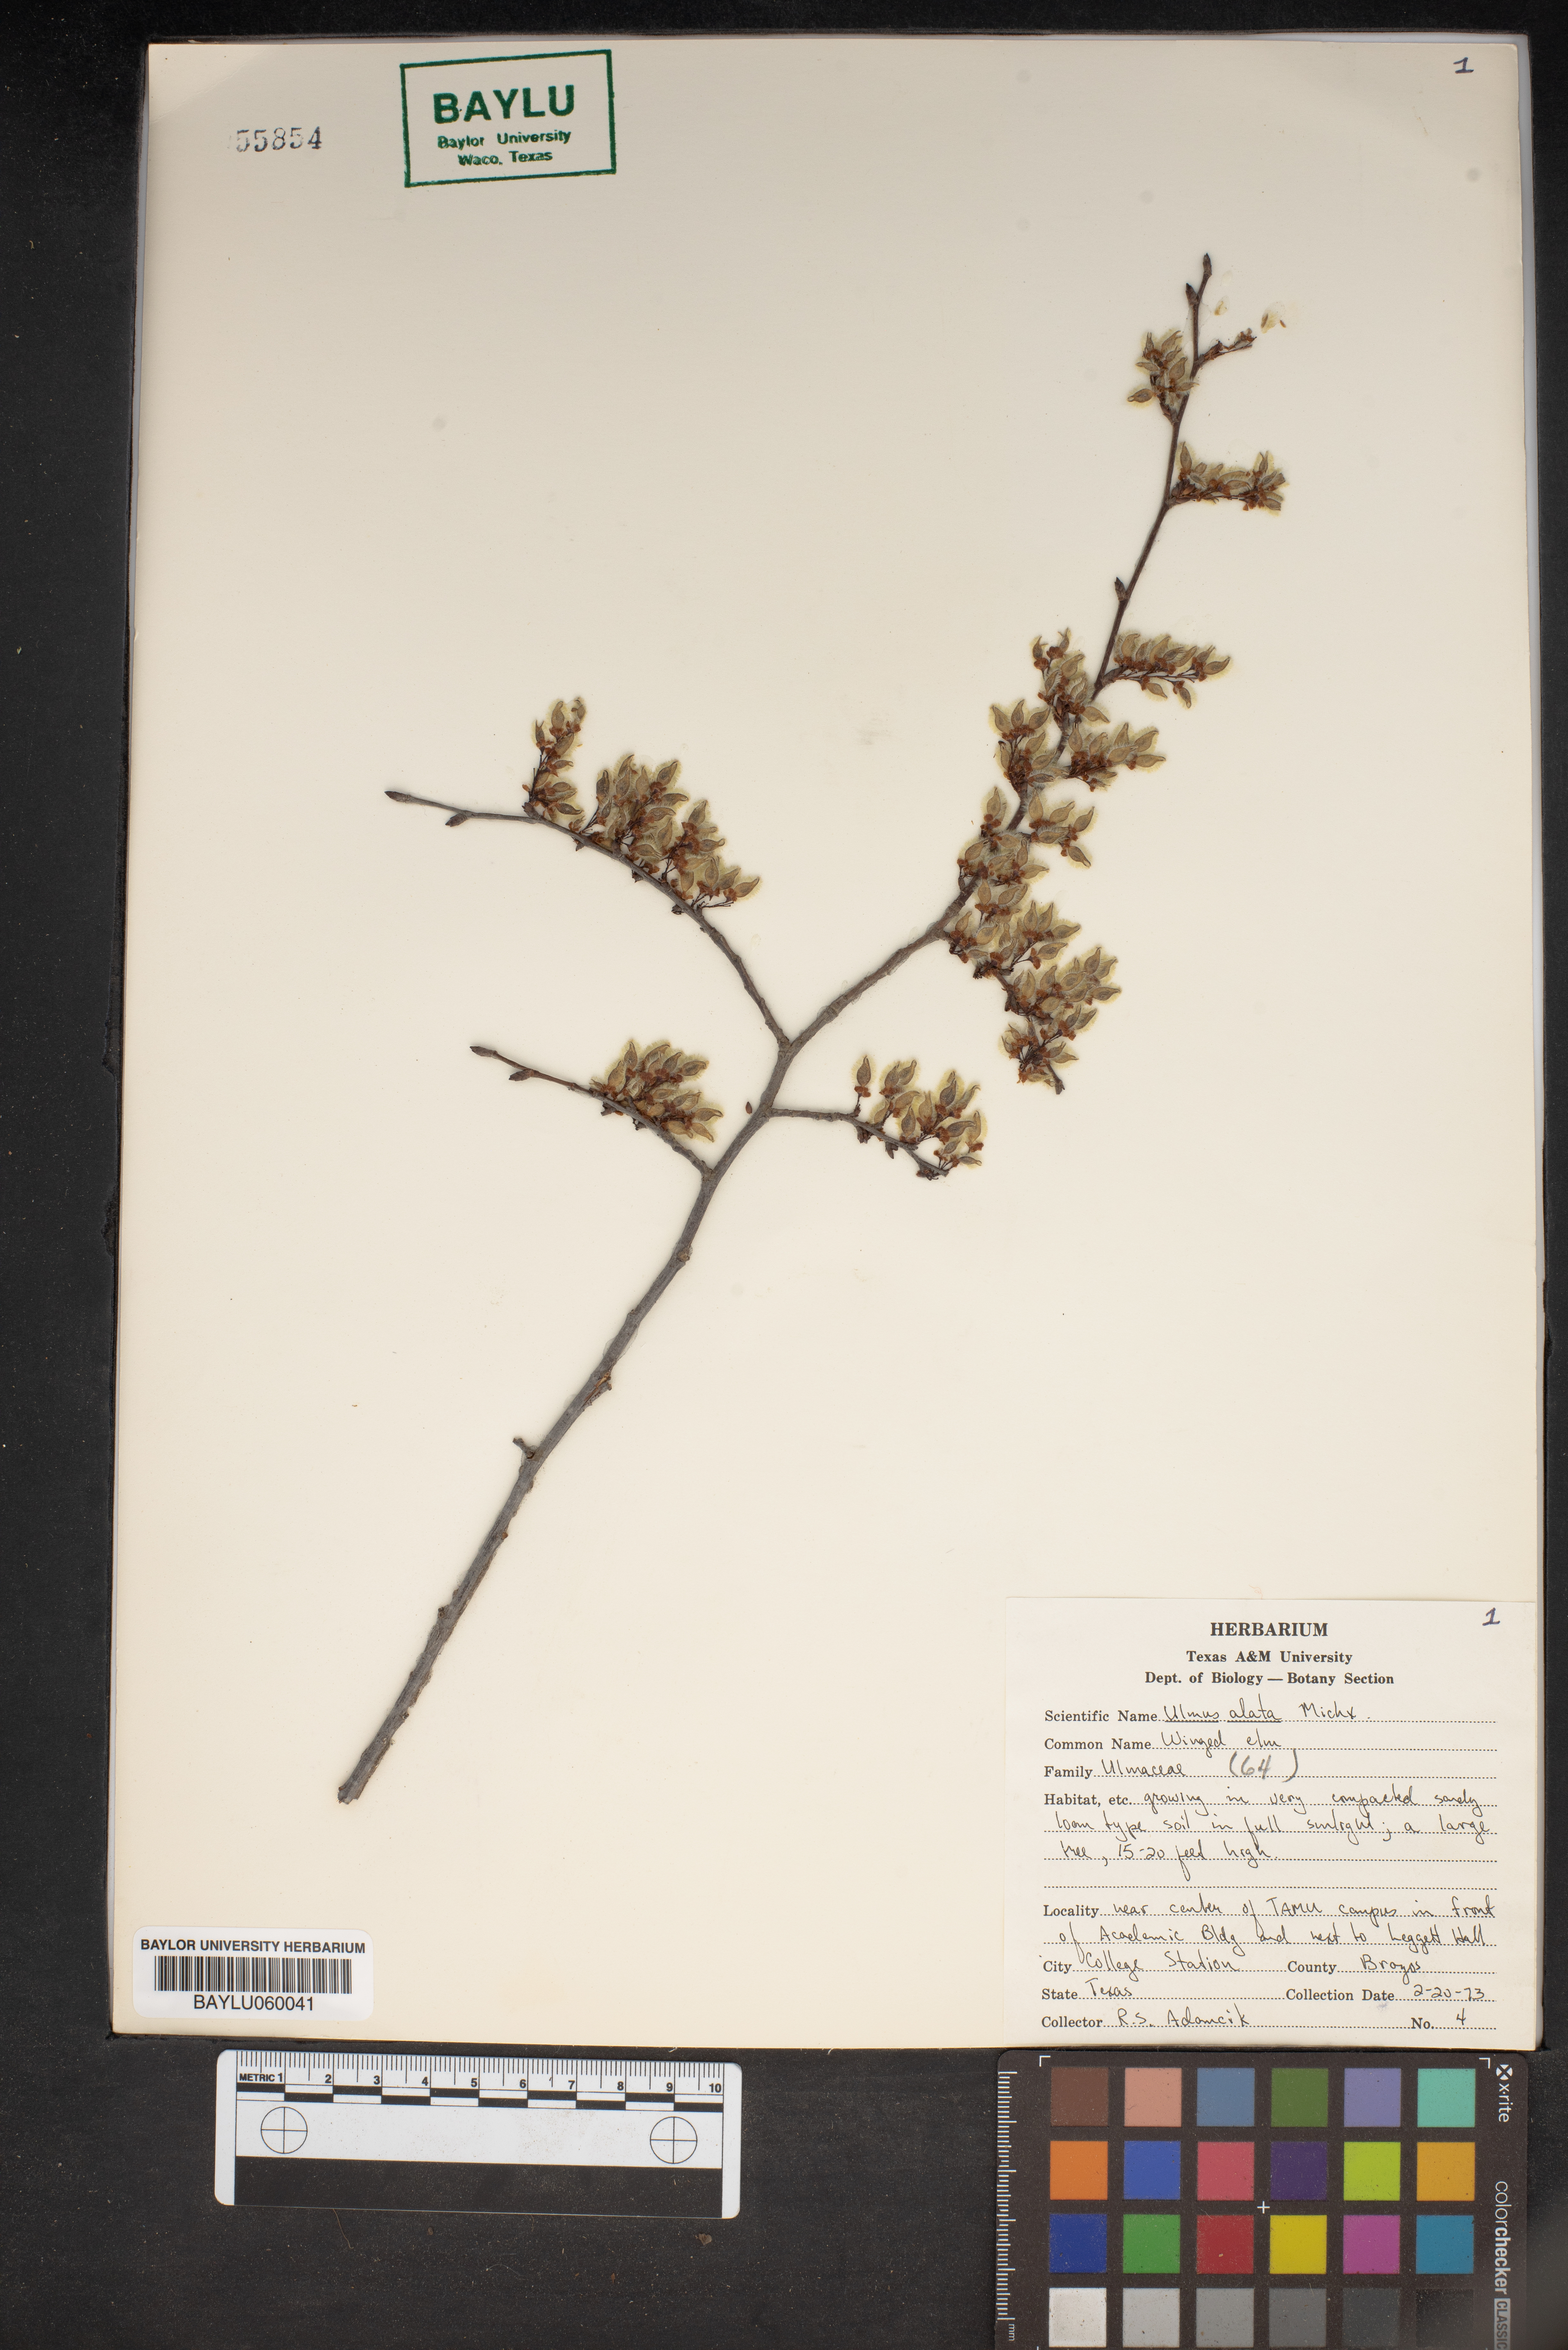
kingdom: Plantae
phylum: Tracheophyta
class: Magnoliopsida
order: Rosales
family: Ulmaceae
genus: Ulmus
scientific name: Ulmus alata
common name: Winged elm
